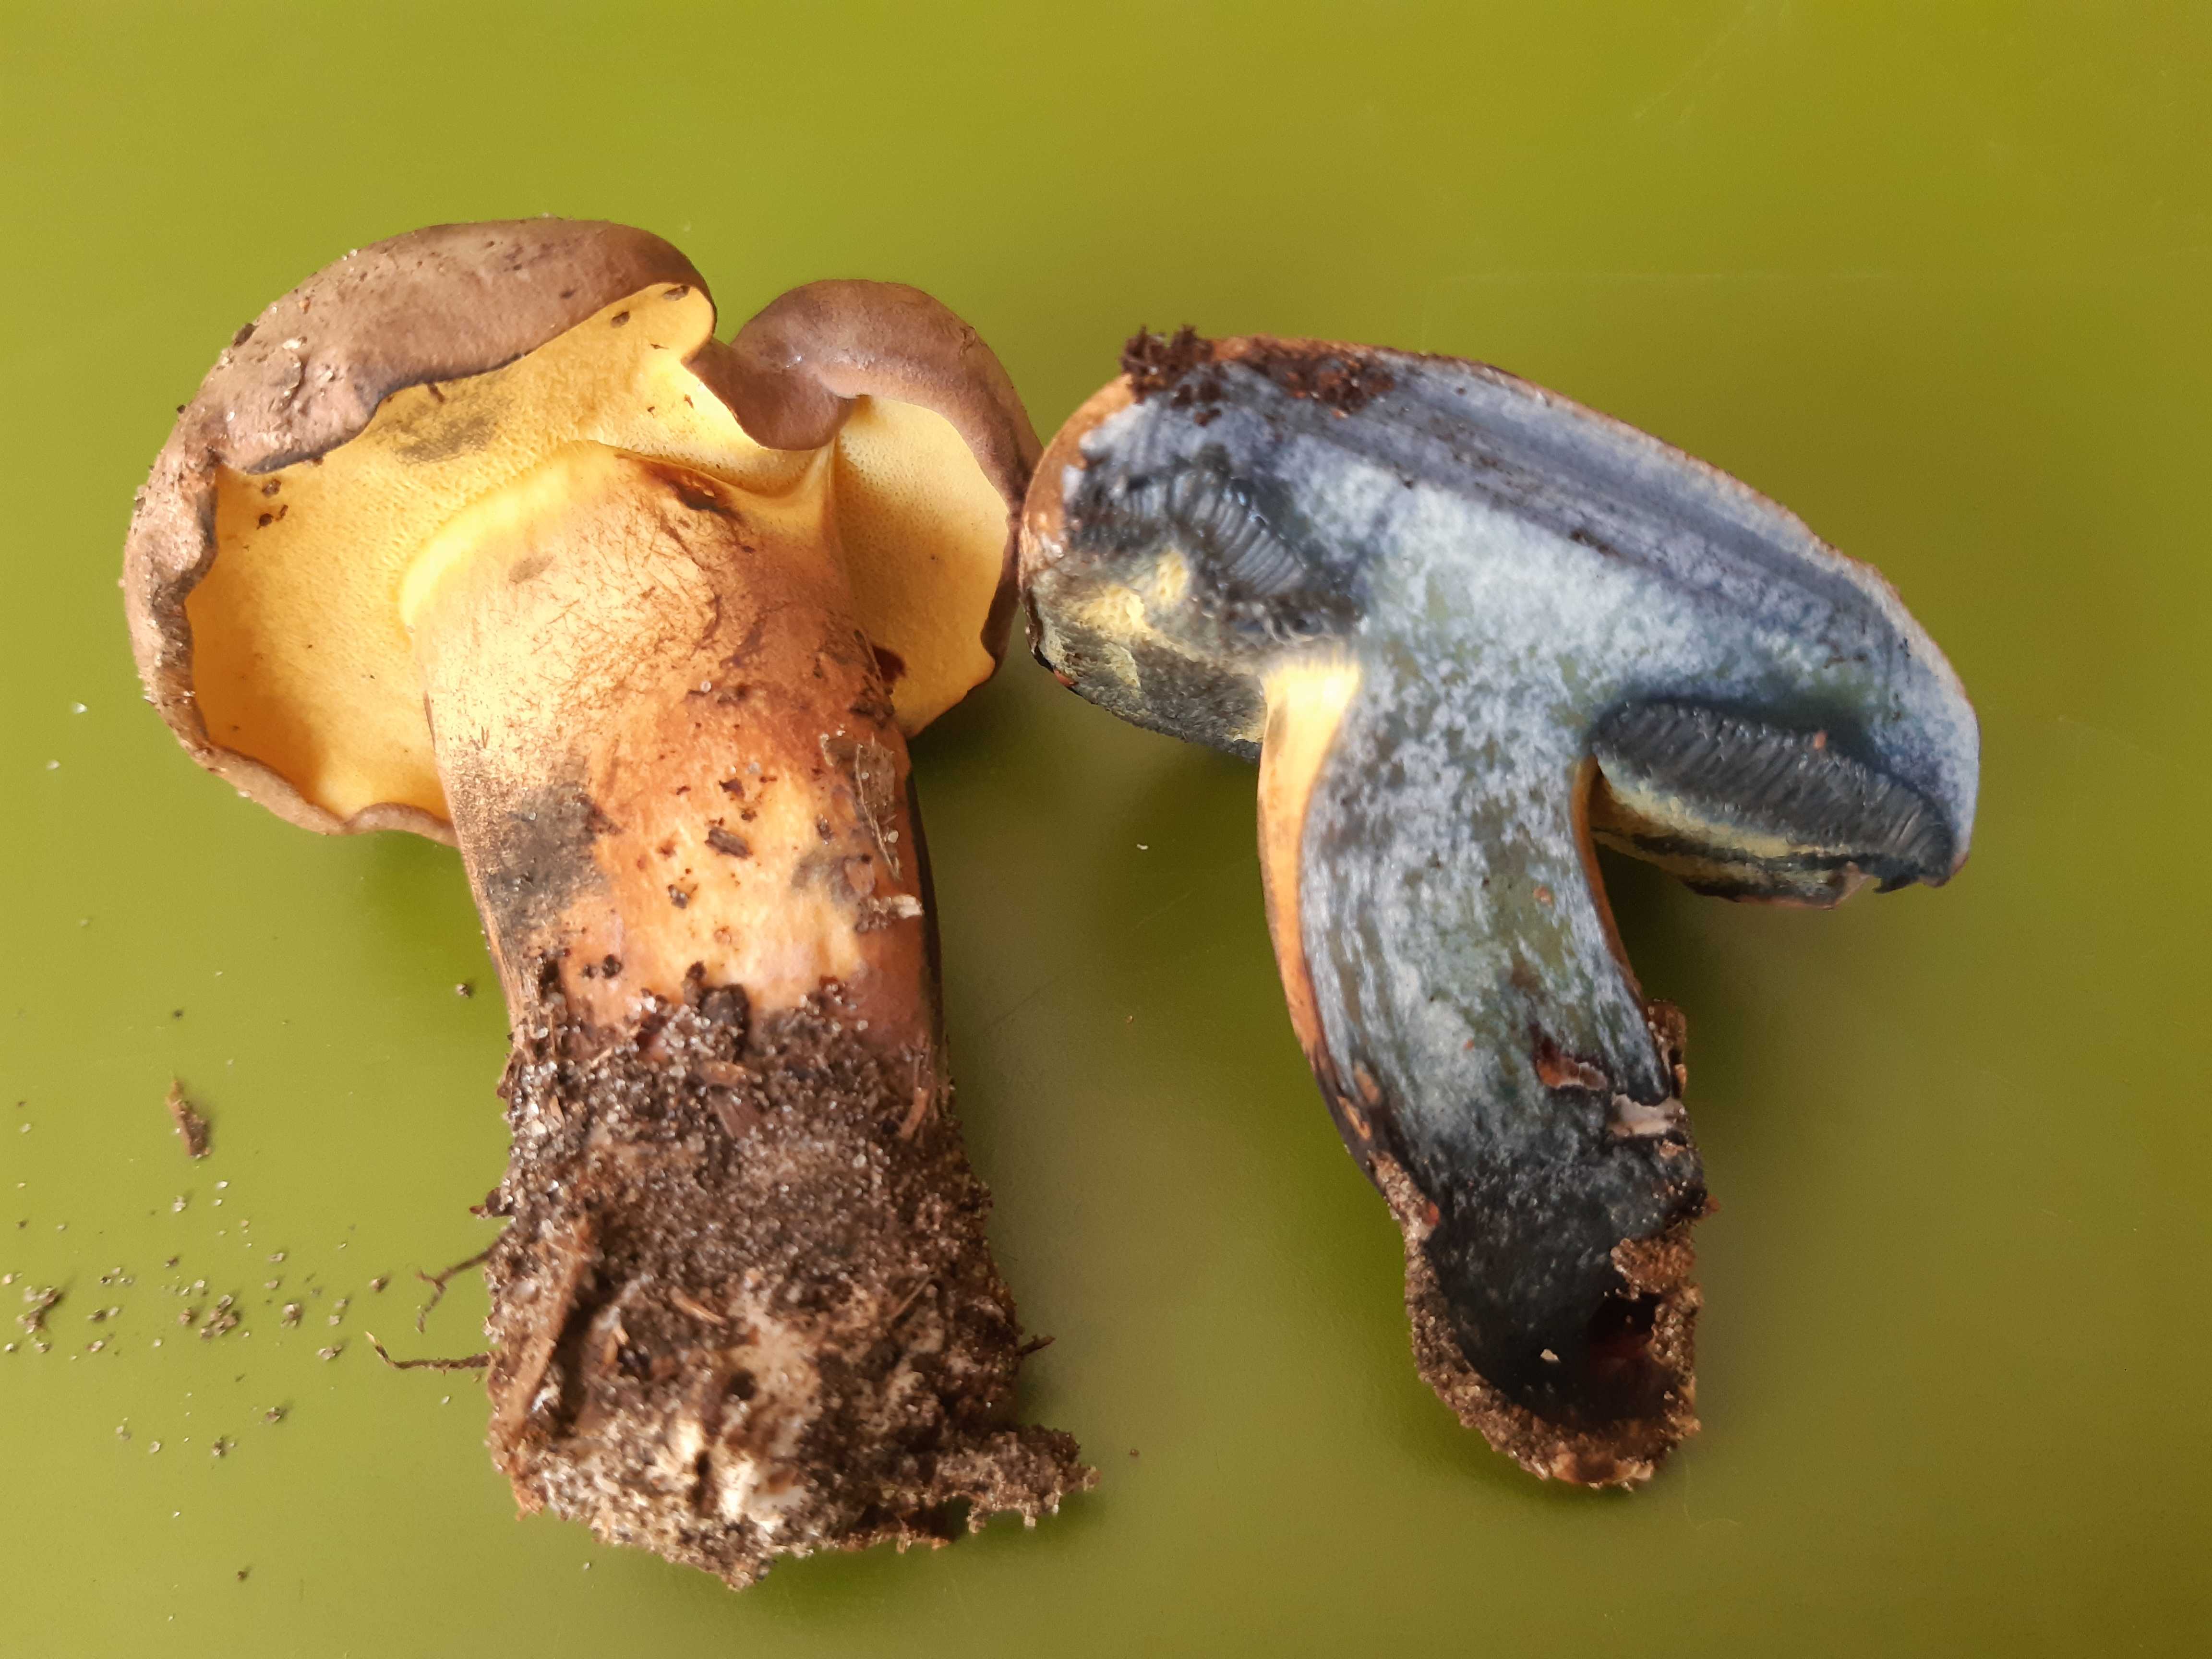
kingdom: Fungi
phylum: Basidiomycota
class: Agaricomycetes
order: Boletales
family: Boletaceae
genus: Cyanoboletus
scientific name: Cyanoboletus pulverulentus
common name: sortblånende rørhat
